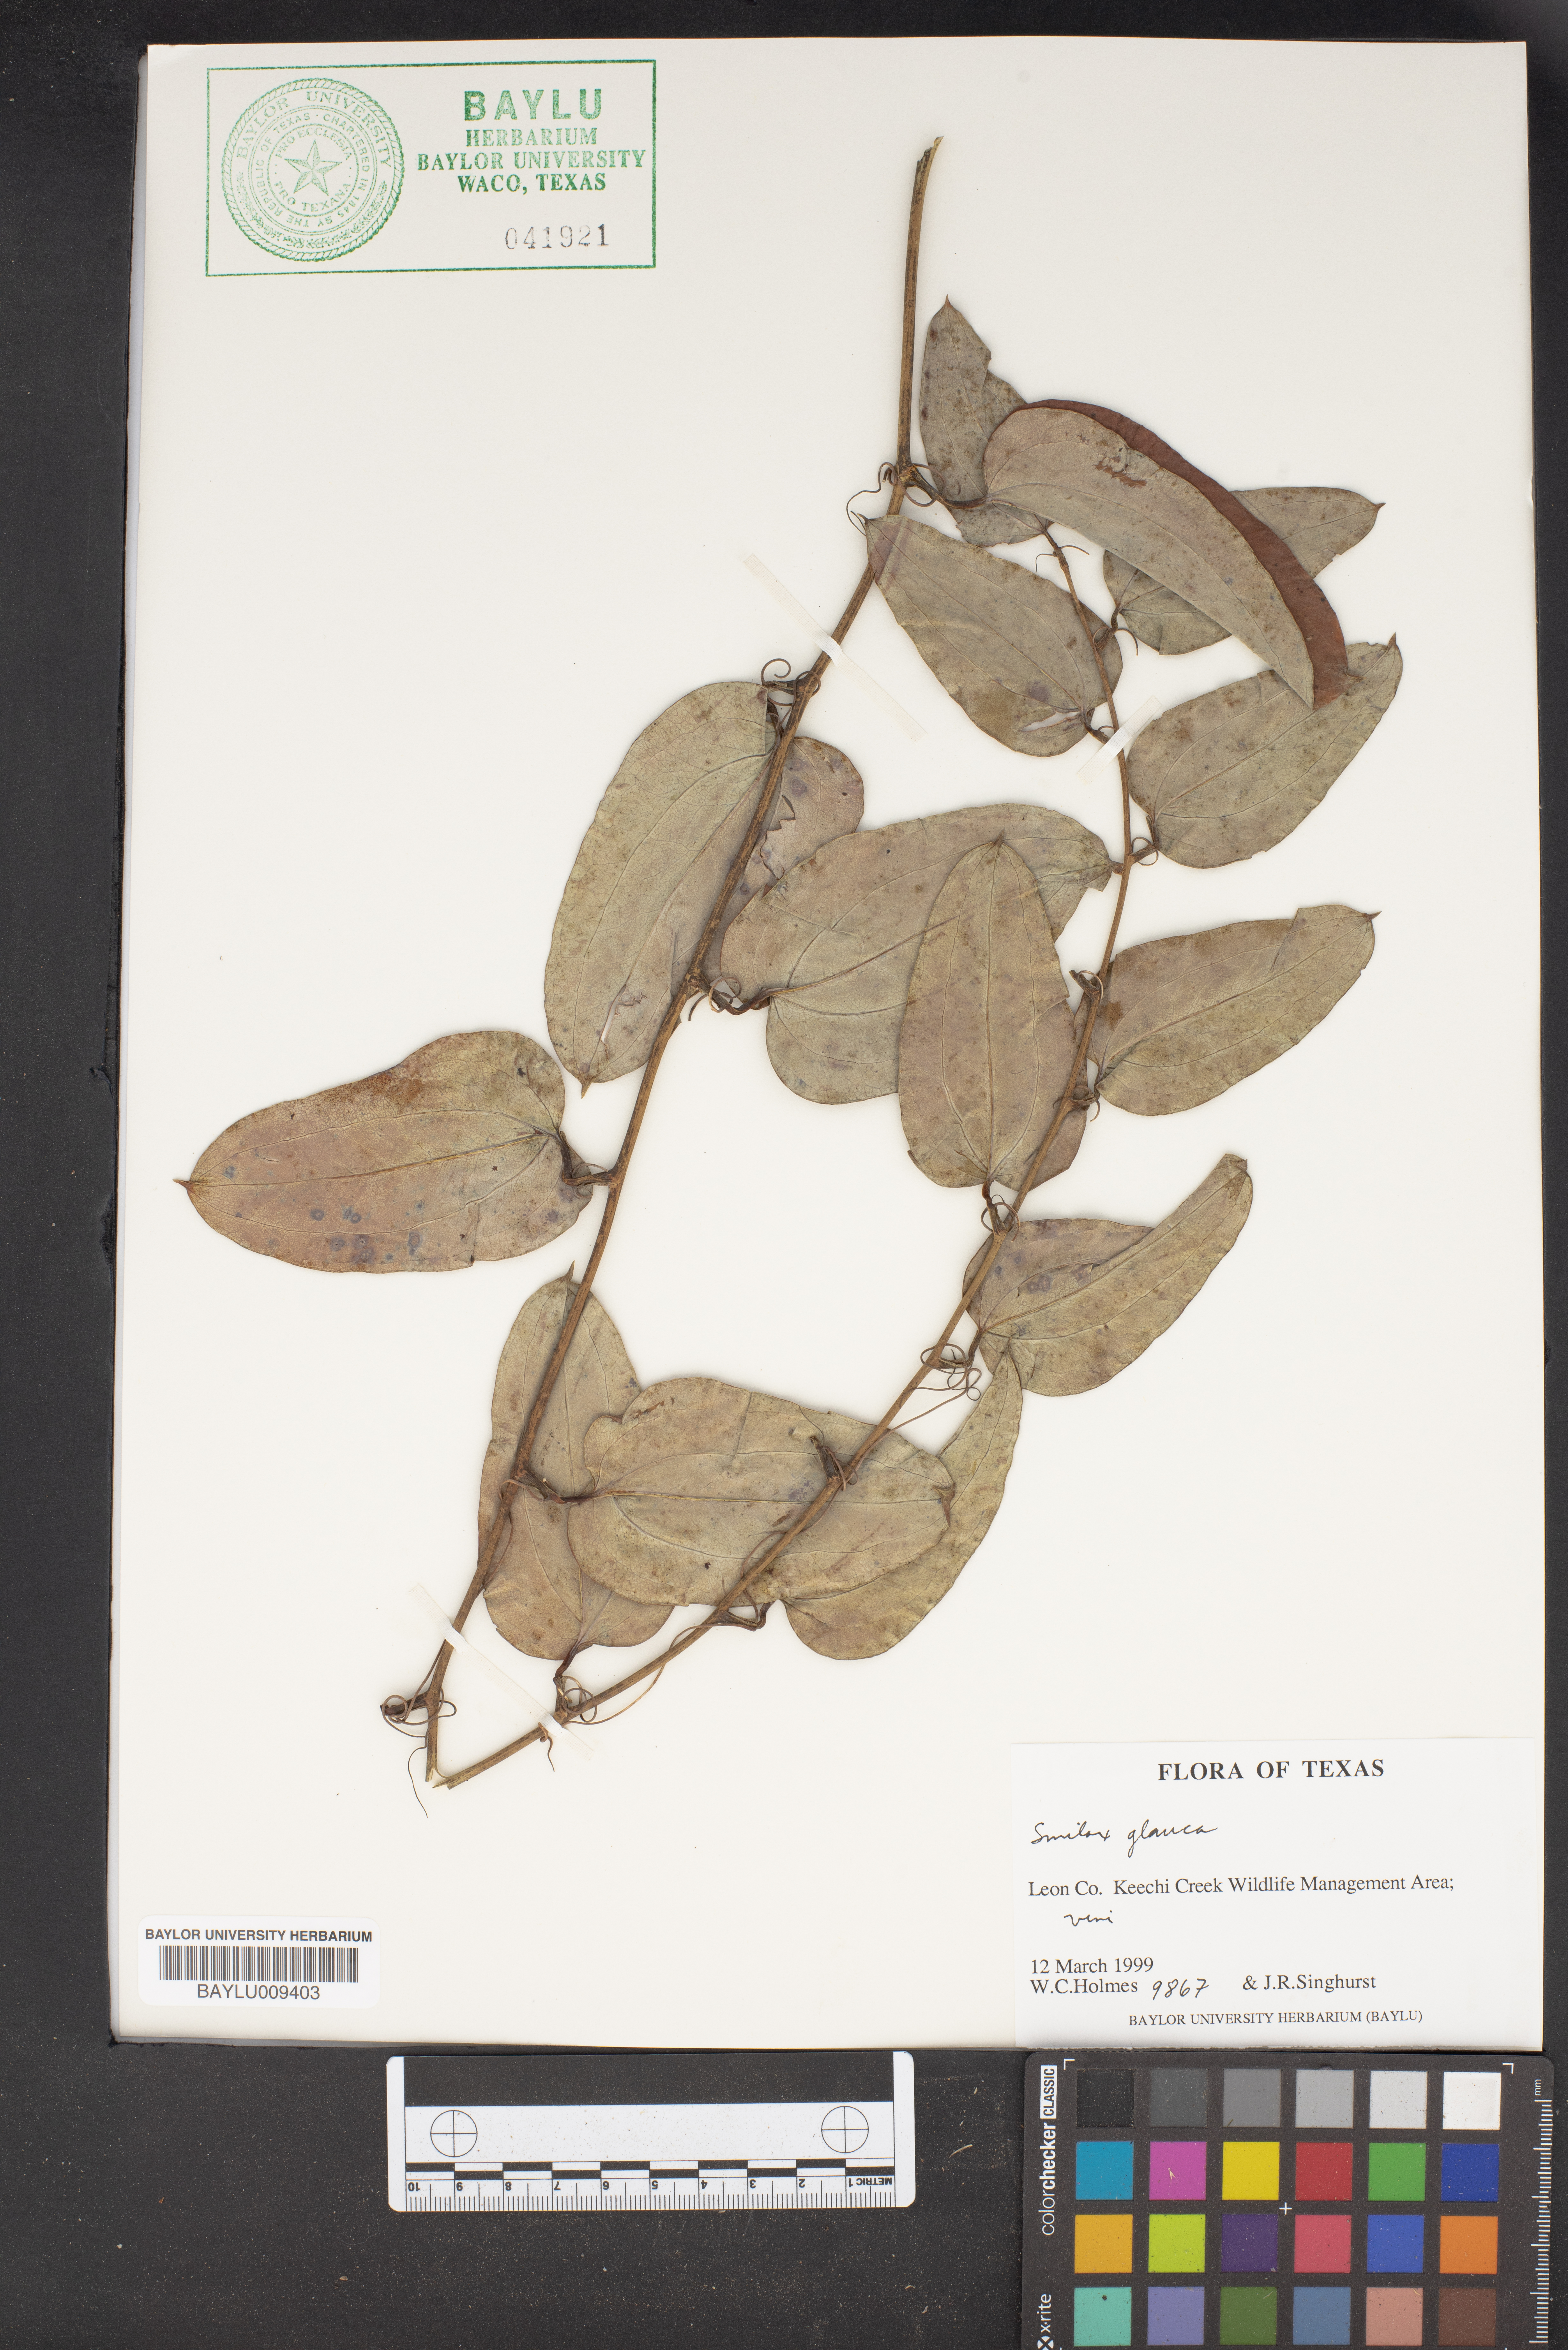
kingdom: Plantae
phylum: Tracheophyta
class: Liliopsida
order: Liliales
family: Smilacaceae
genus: Smilax
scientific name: Smilax glauca
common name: Cat greenbrier
